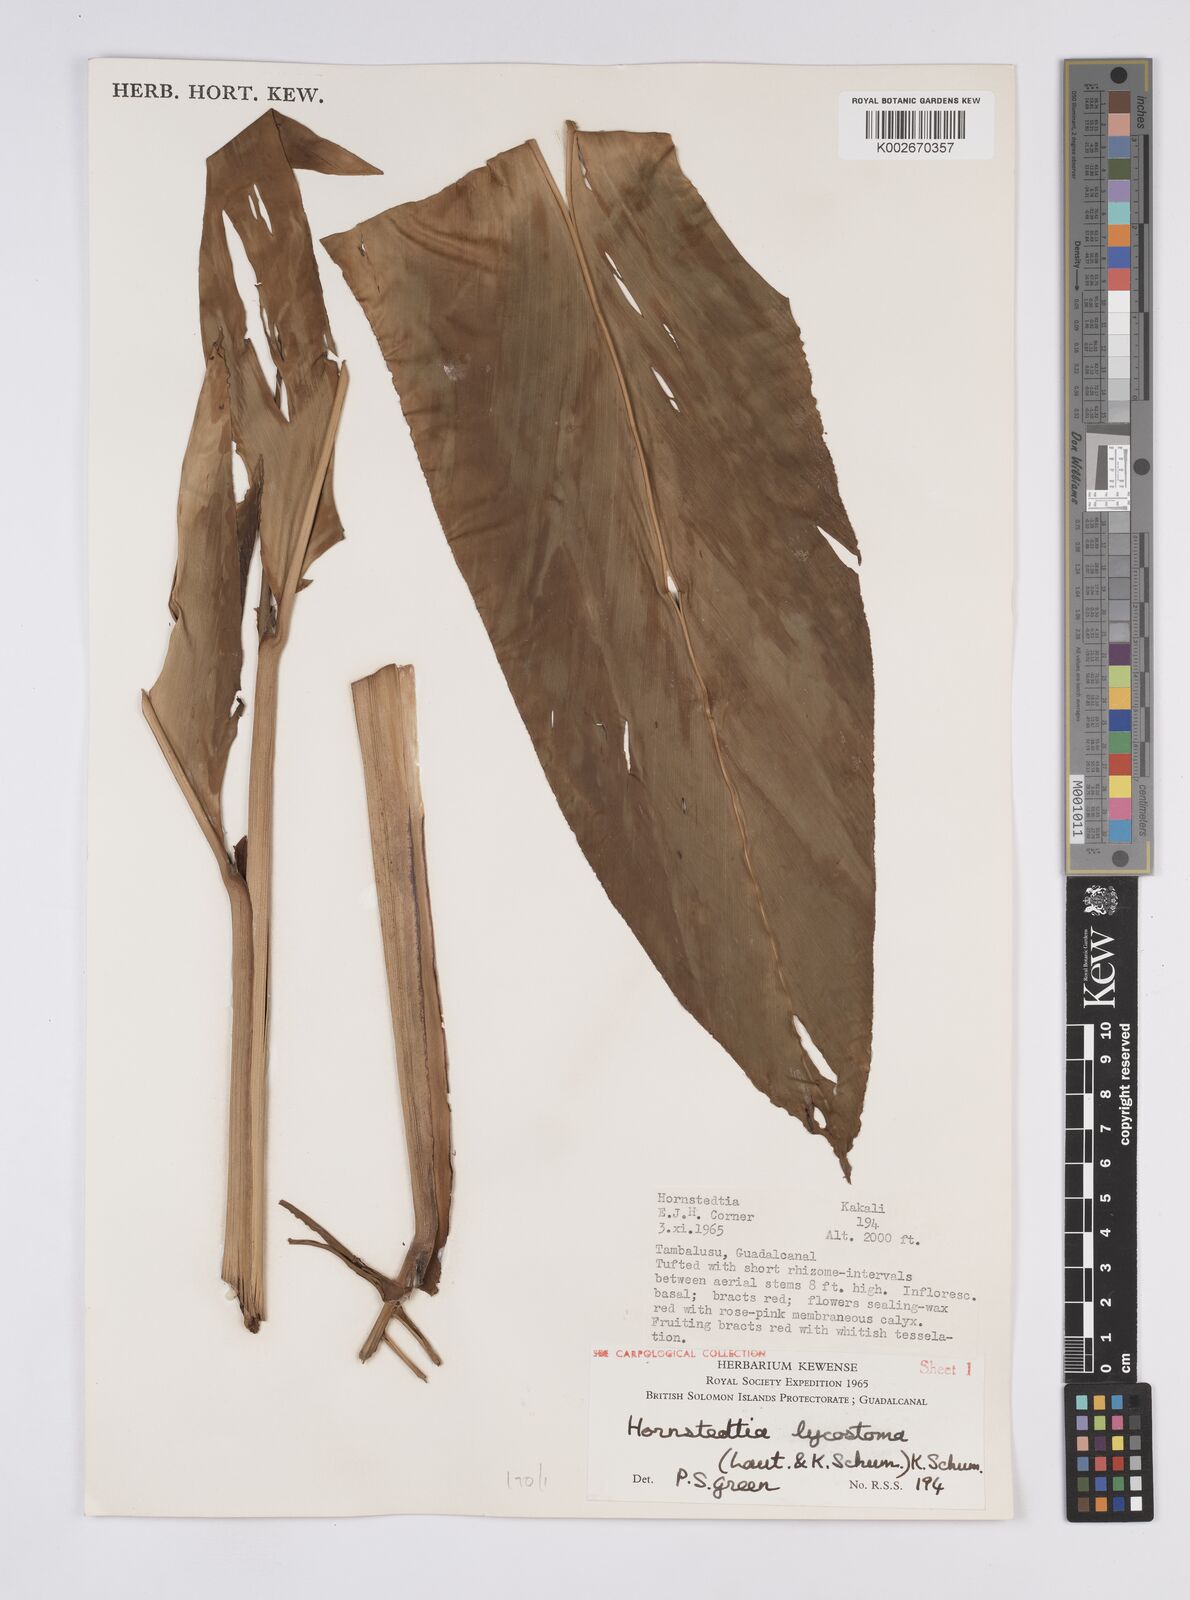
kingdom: Plantae
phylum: Tracheophyta
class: Liliopsida
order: Zingiberales
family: Zingiberaceae
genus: Hornstedtia
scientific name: Hornstedtia scottiana
